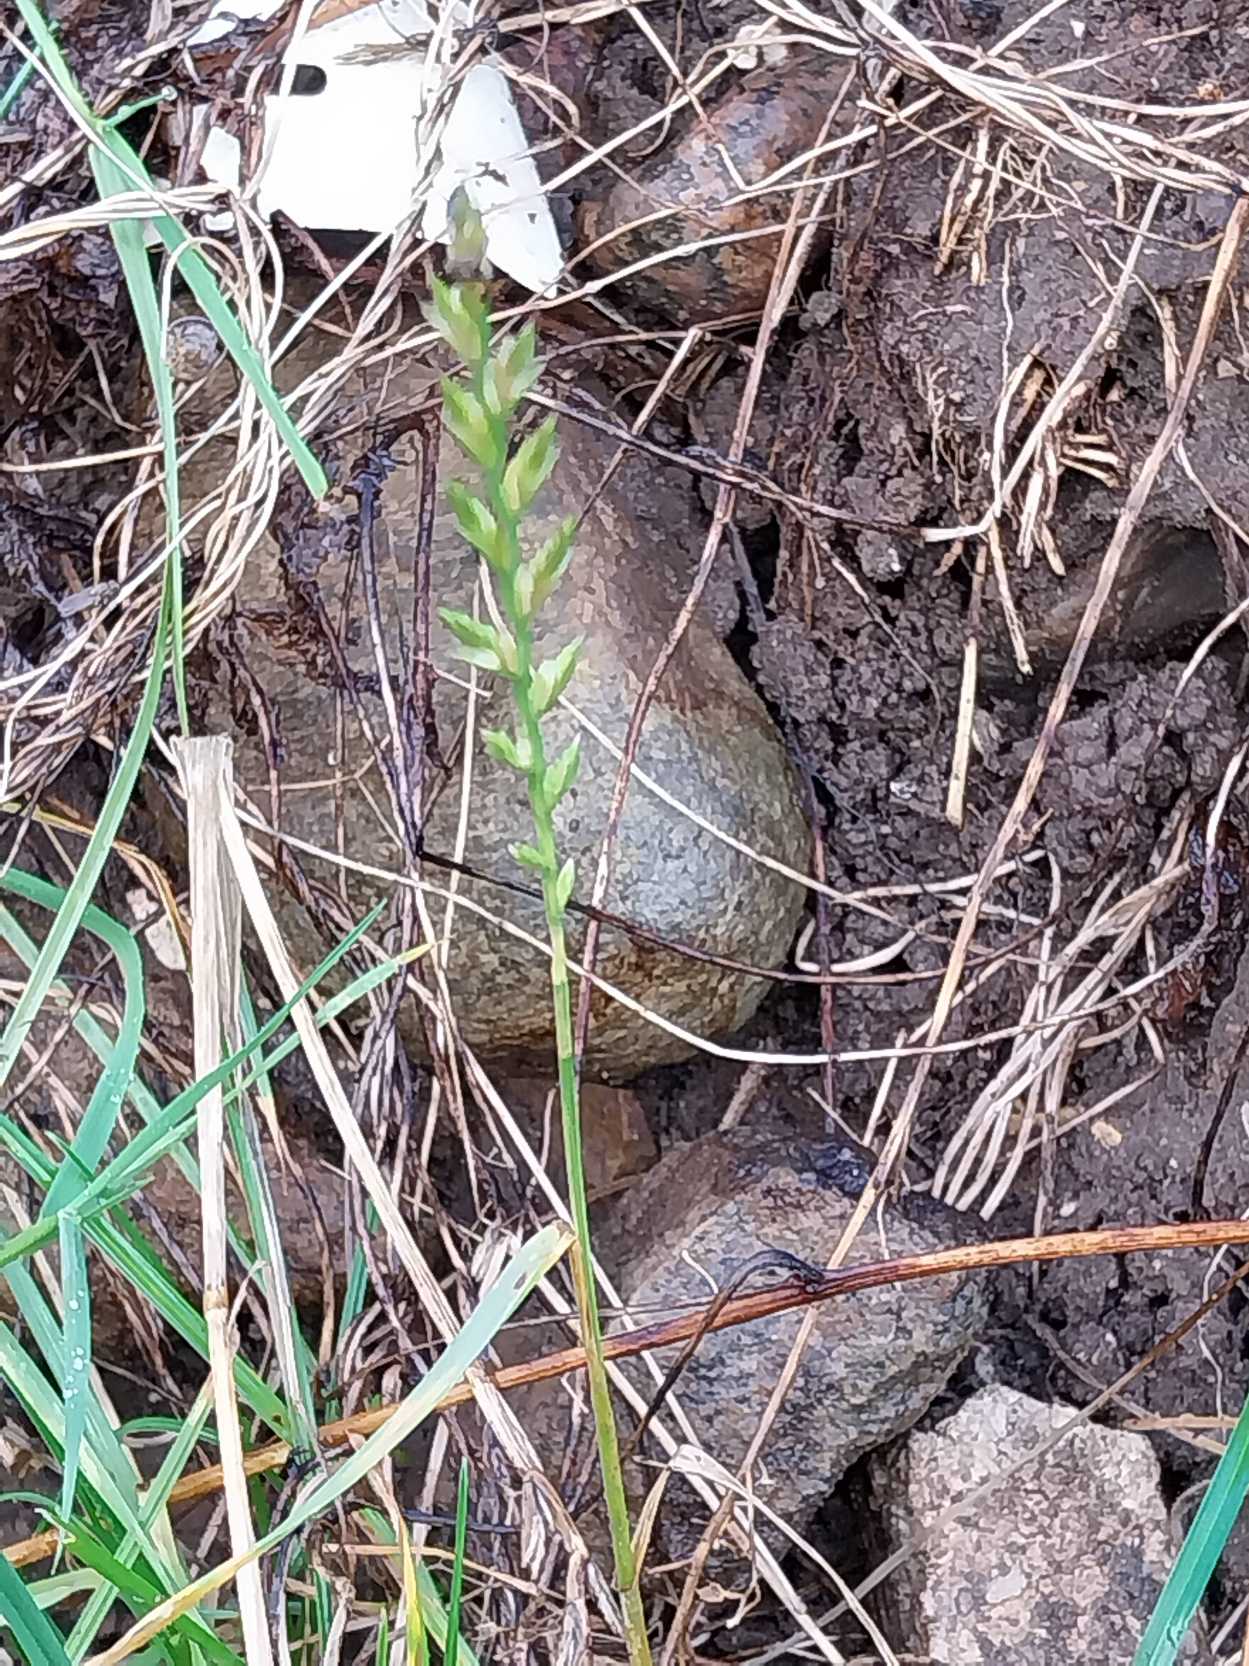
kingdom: Plantae
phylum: Tracheophyta
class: Liliopsida
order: Poales
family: Poaceae
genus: Lolium
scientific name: Lolium perenne
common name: Almindelig rajgræs
